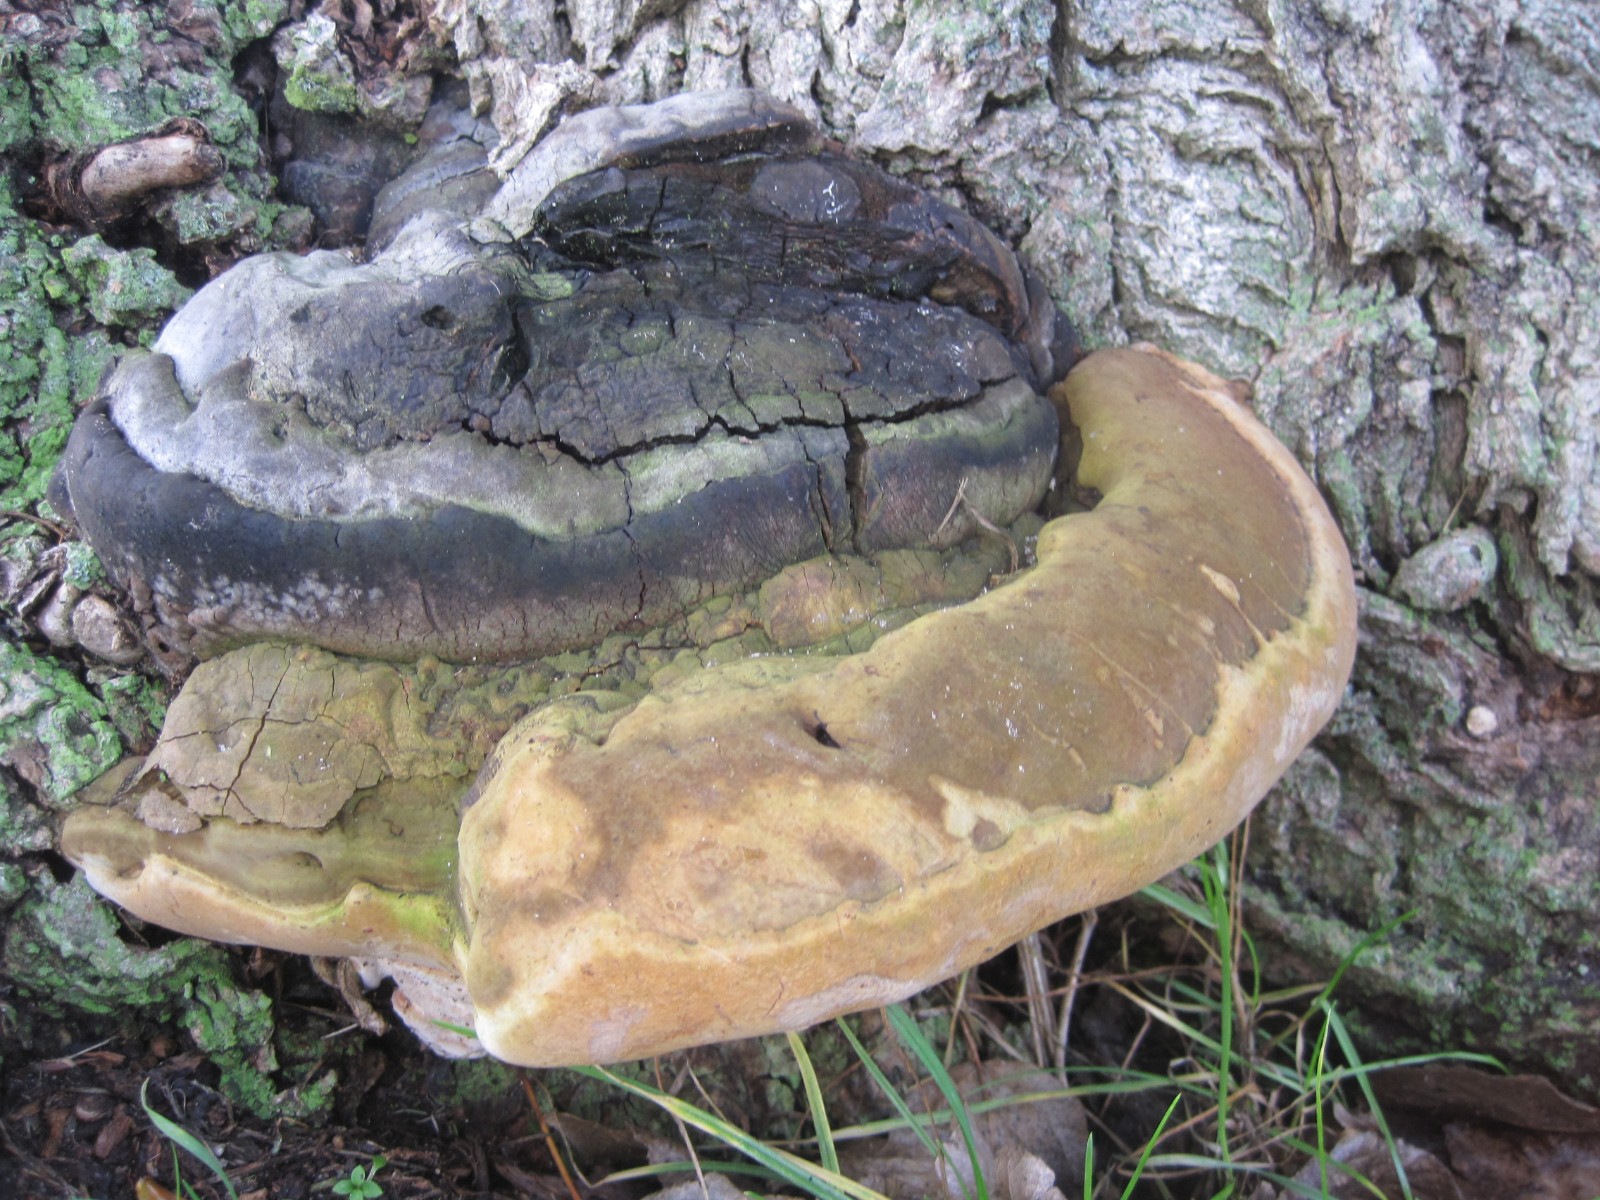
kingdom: Fungi
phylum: Basidiomycota
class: Agaricomycetes
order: Polyporales
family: Polyporaceae
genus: Ganoderma
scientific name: Ganoderma adspersum
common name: grov lakporesvamp
